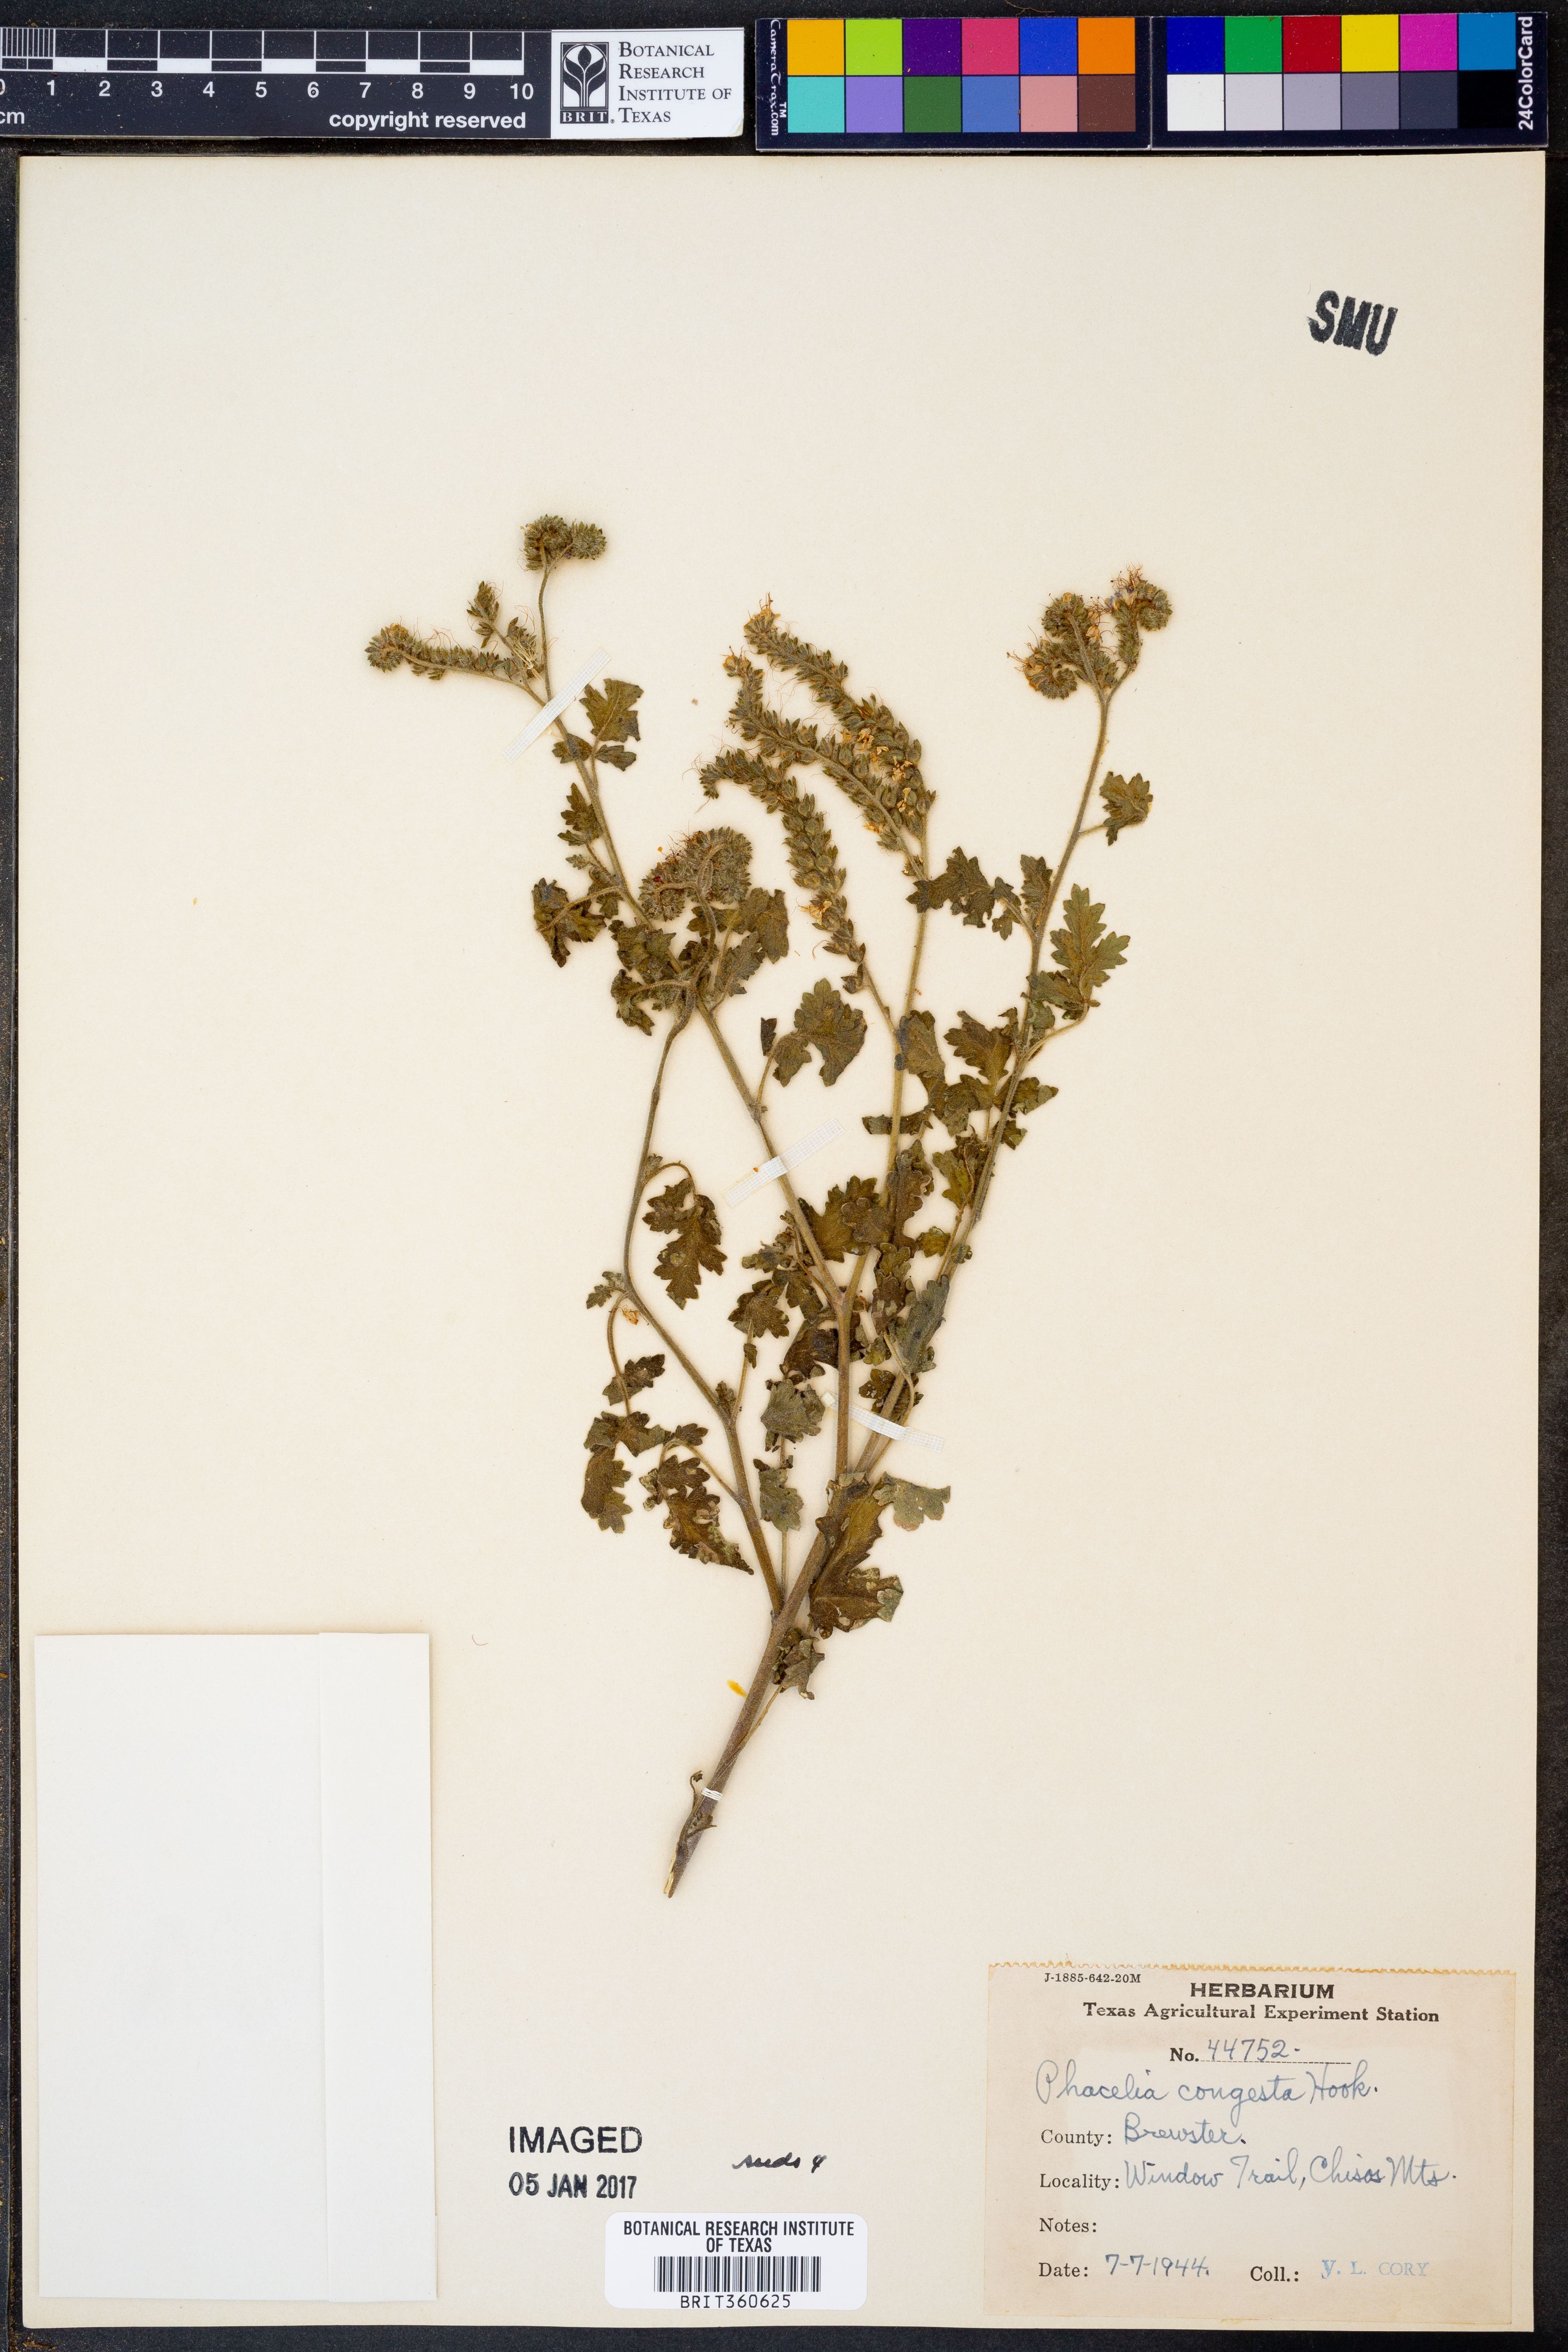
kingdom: Plantae
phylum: Tracheophyta
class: Magnoliopsida
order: Boraginales
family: Hydrophyllaceae
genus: Phacelia
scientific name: Phacelia congesta
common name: Blue curls
